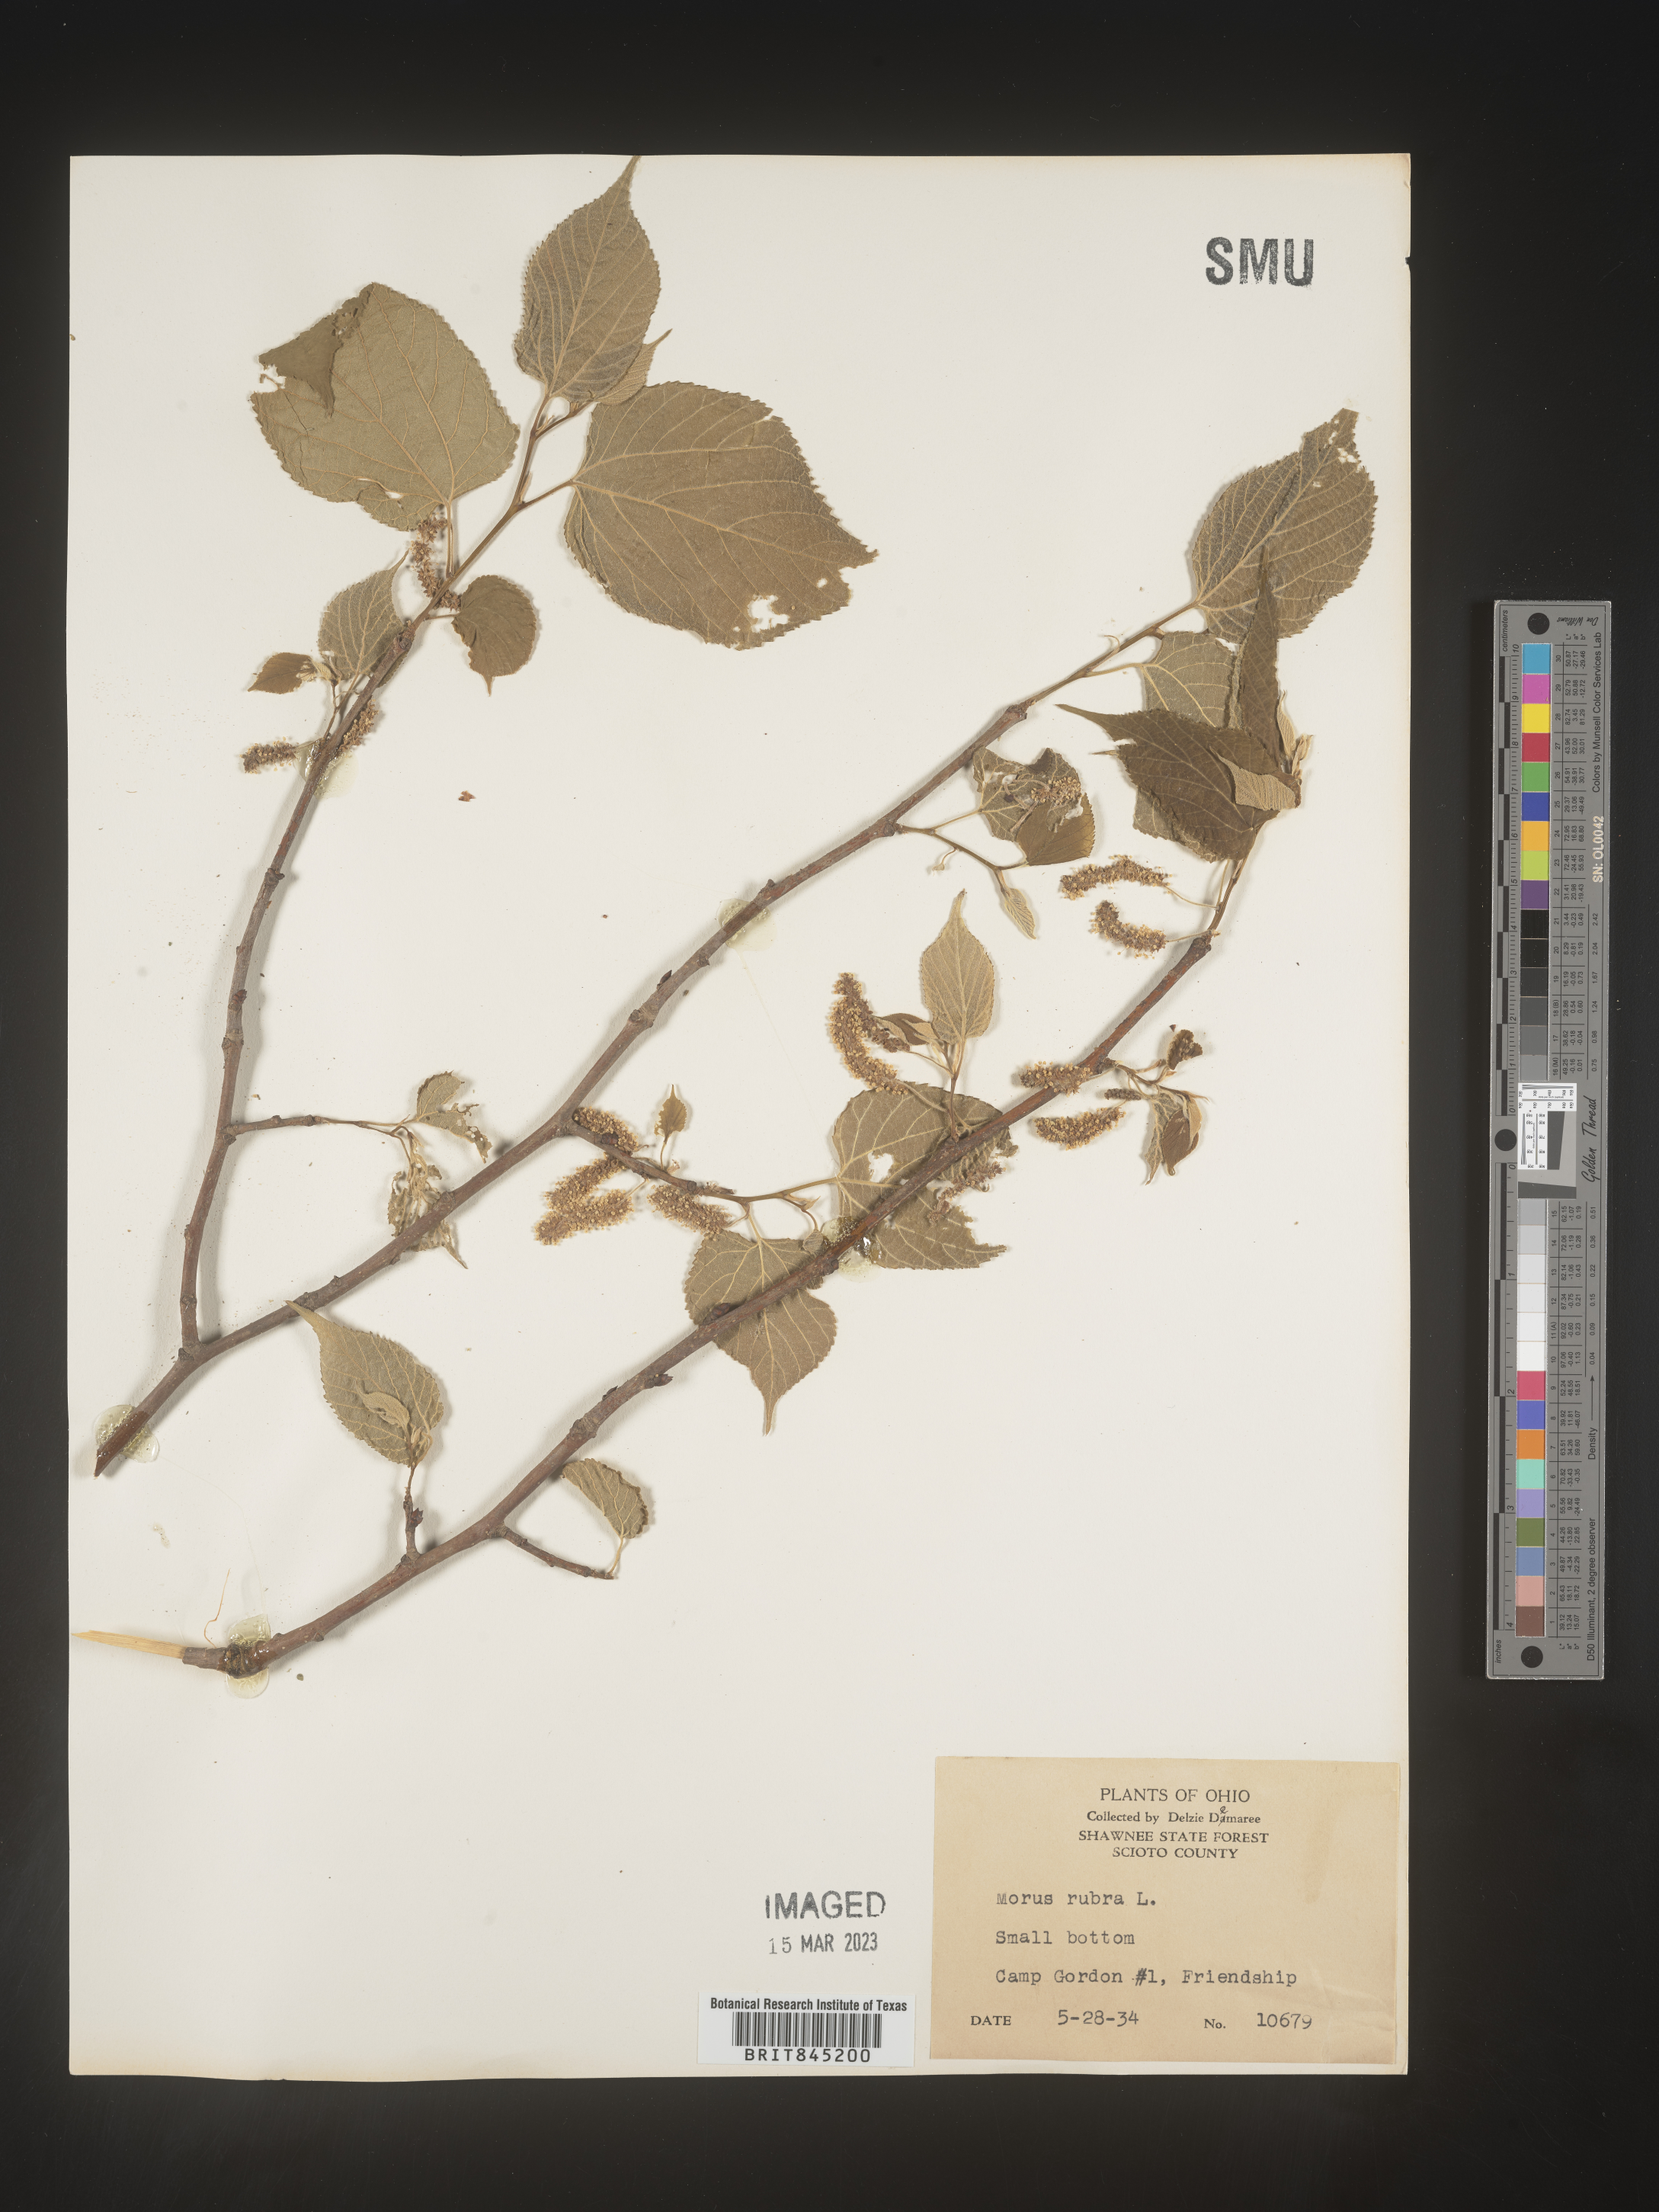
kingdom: Plantae
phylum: Tracheophyta
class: Magnoliopsida
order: Rosales
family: Moraceae
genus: Morus
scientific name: Morus rubra
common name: Red mulberry
